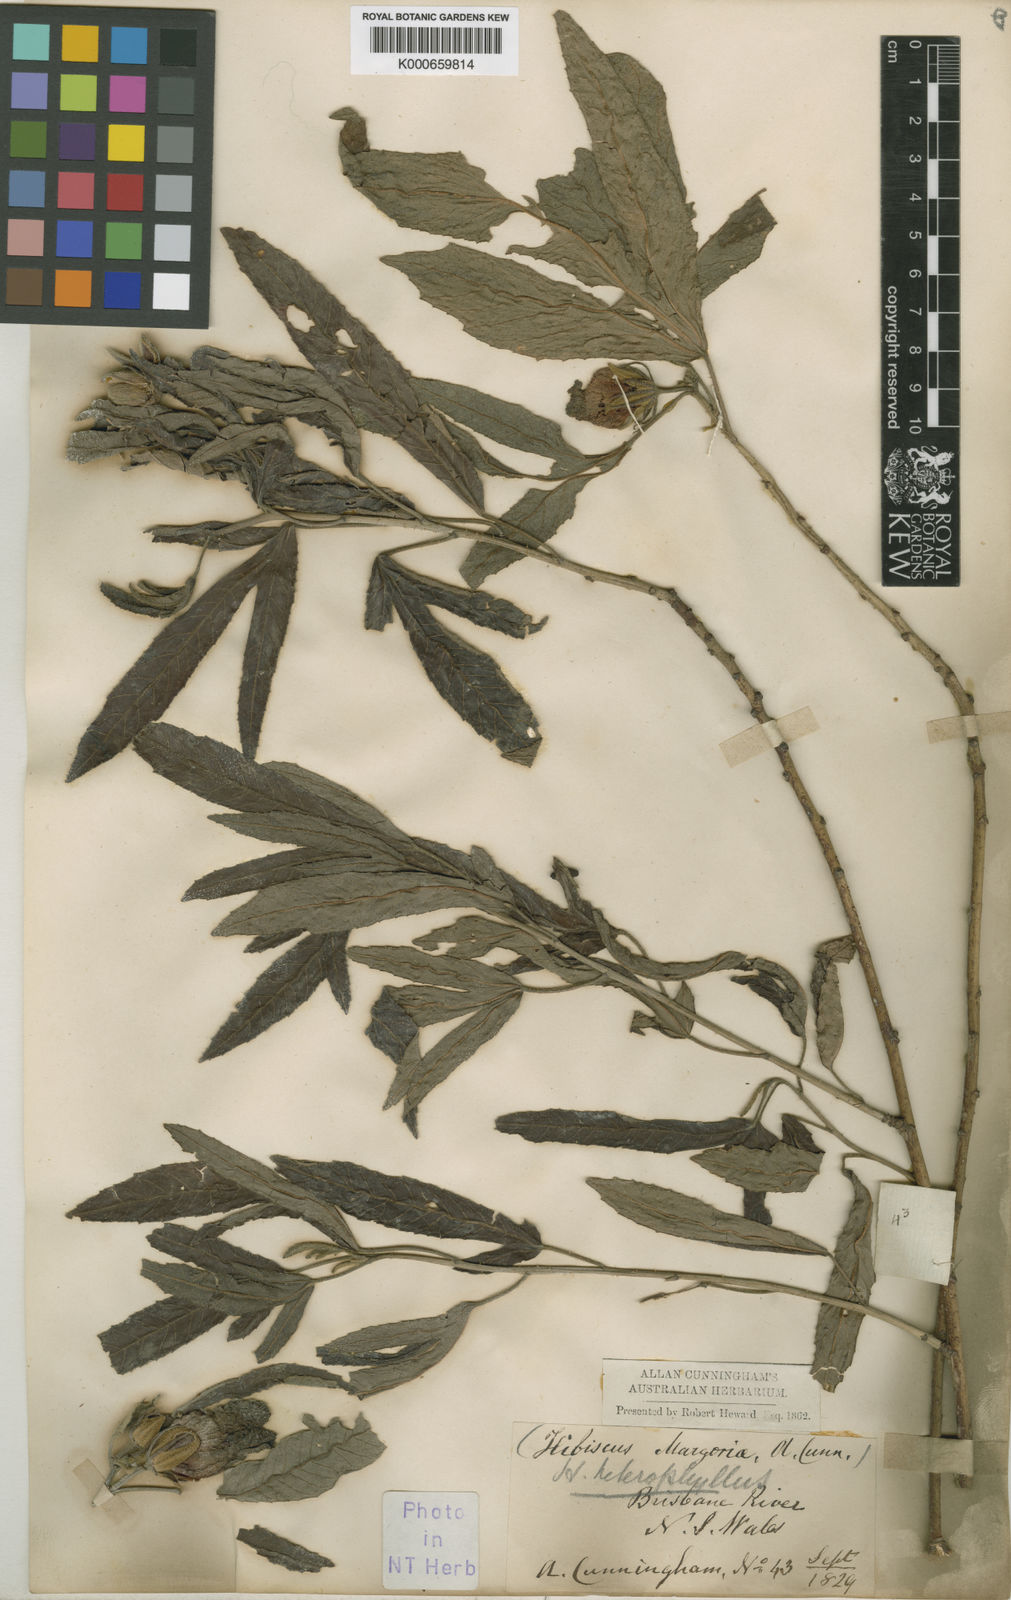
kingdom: Plantae
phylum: Tracheophyta
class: Magnoliopsida
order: Malvales
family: Malvaceae
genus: Hibiscus
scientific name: Hibiscus heterophyllus
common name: Queensland-sorrel
